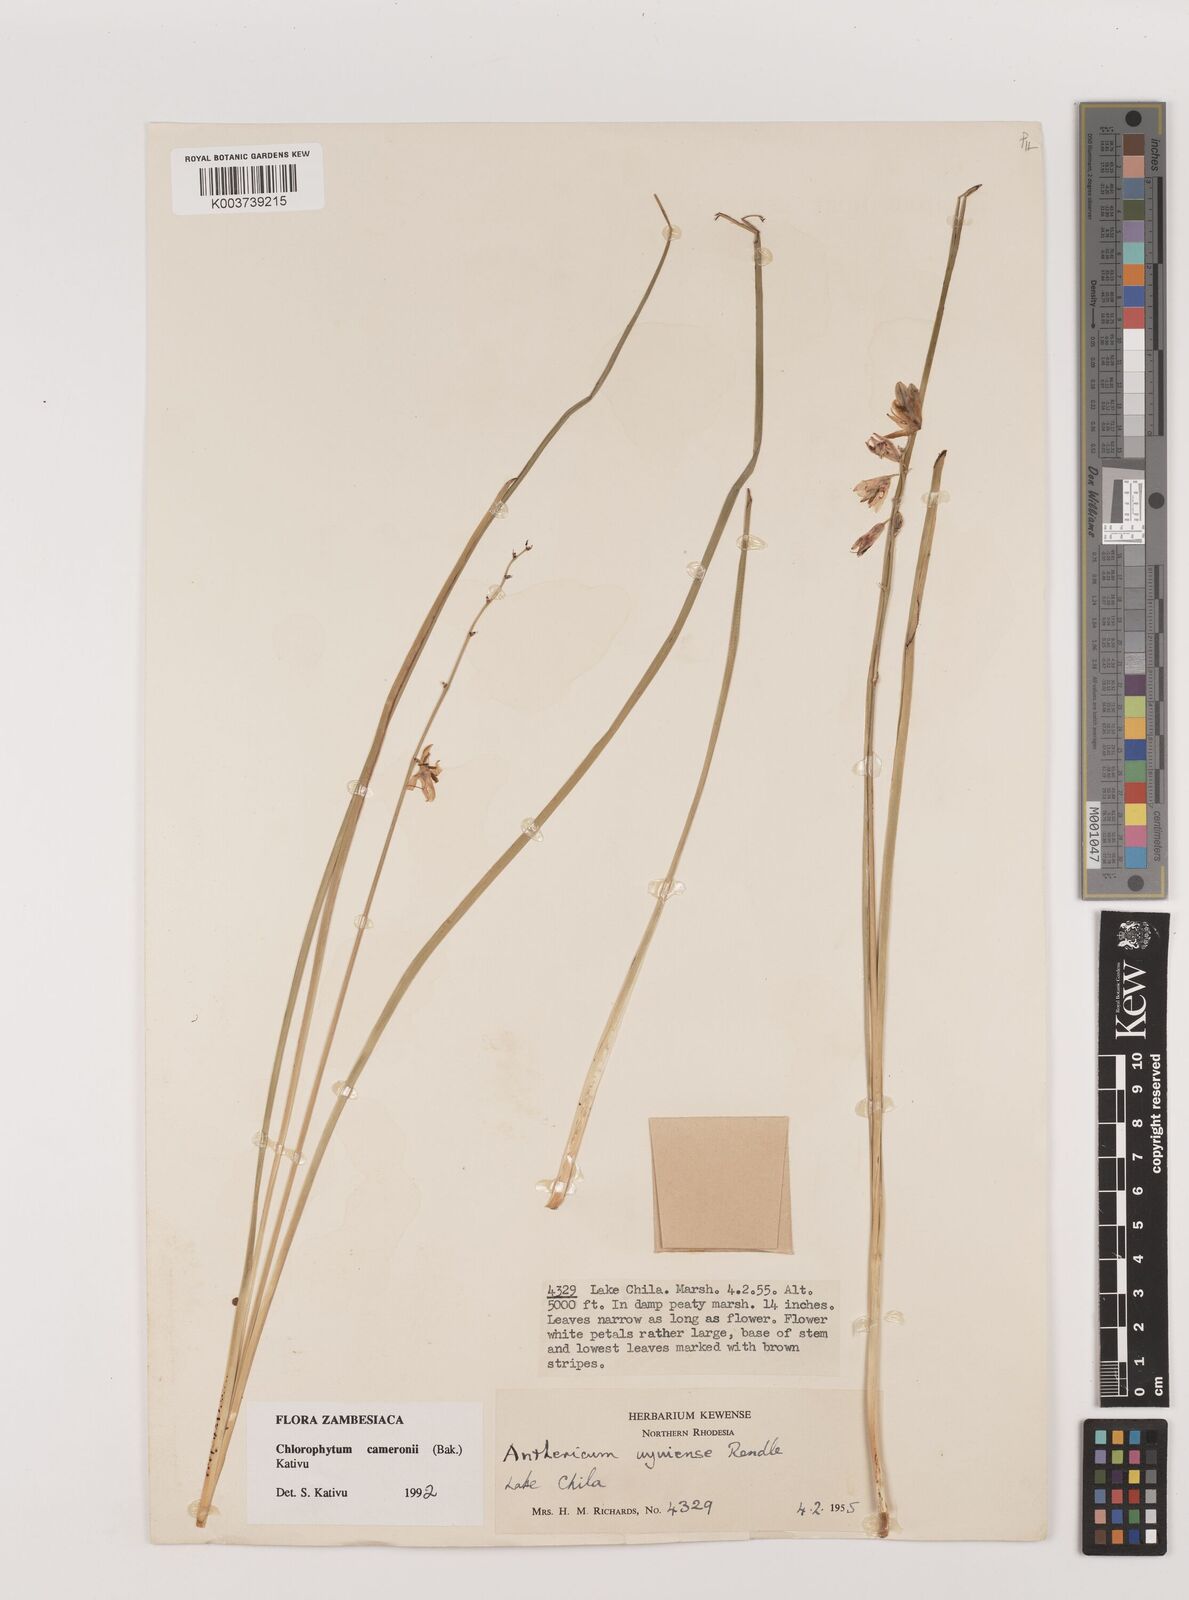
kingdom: Plantae
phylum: Tracheophyta
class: Liliopsida
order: Asparagales
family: Asparagaceae
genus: Chlorophytum
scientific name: Chlorophytum cameronii
